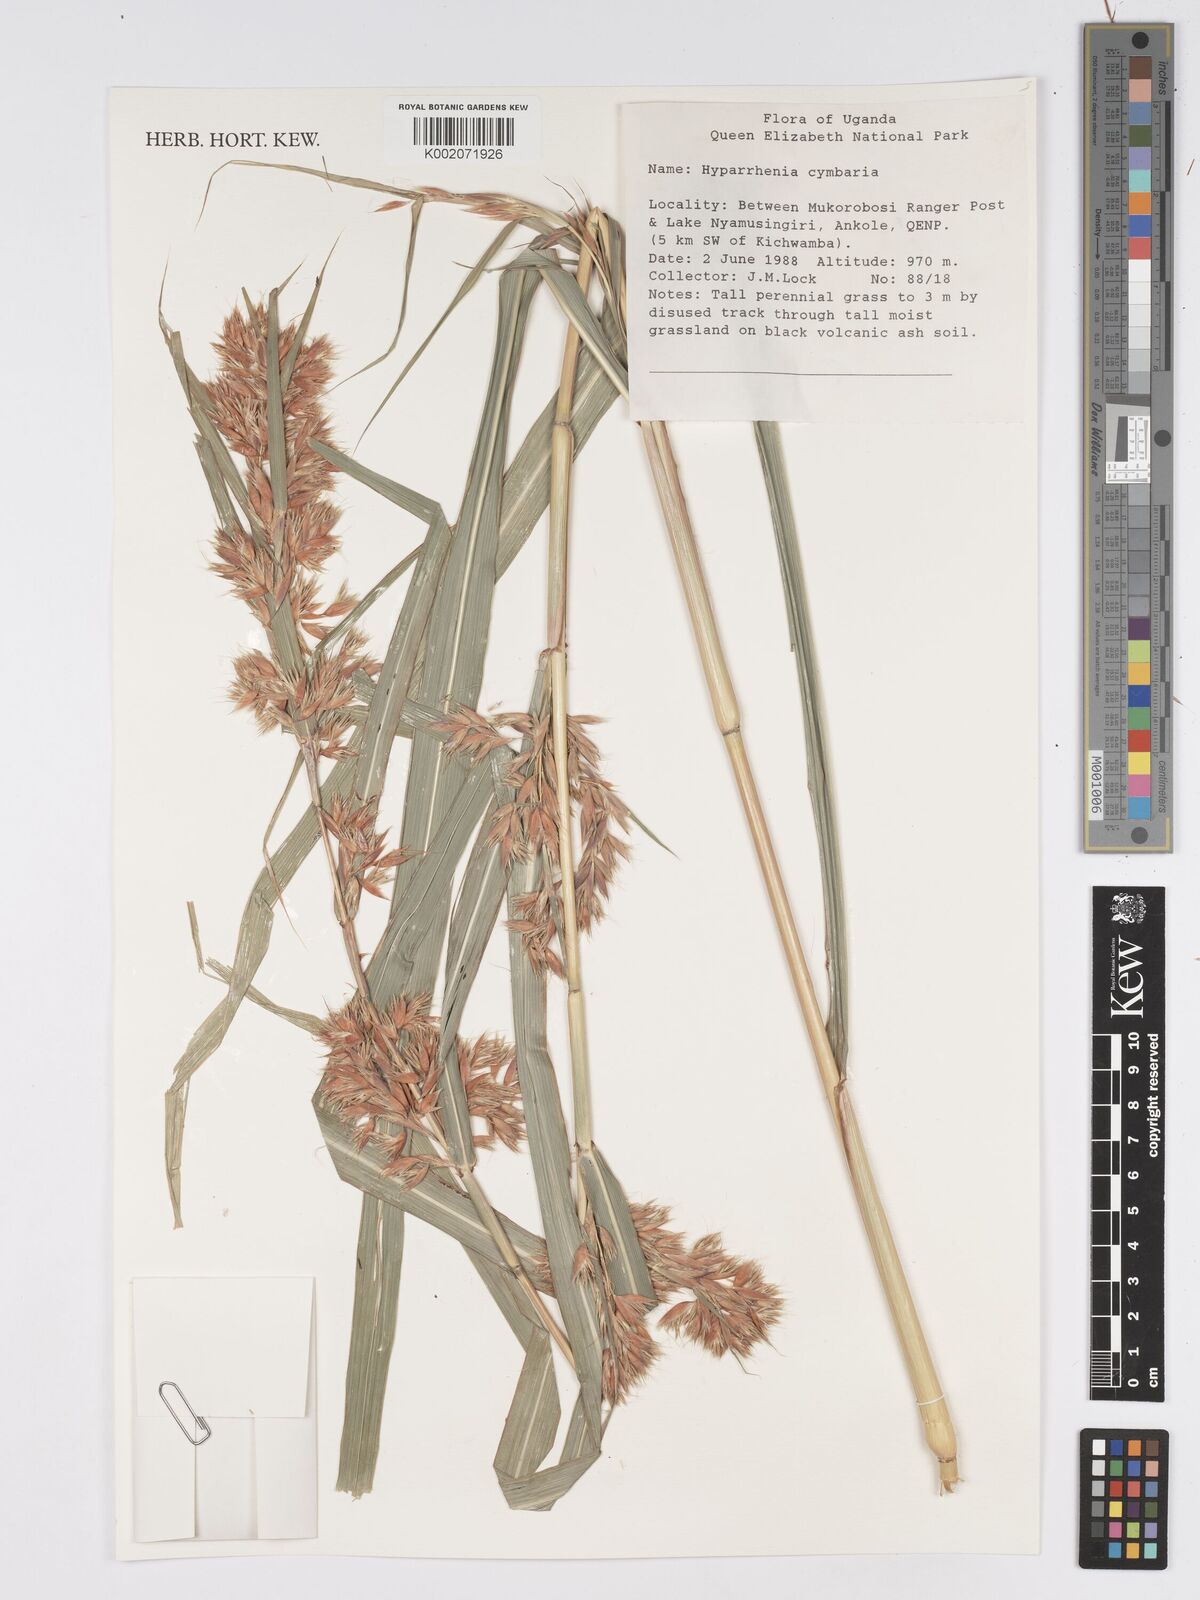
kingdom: Plantae
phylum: Tracheophyta
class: Liliopsida
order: Poales
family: Poaceae
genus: Hyparrhenia
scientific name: Hyparrhenia cymbaria
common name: Boat thatching grass
